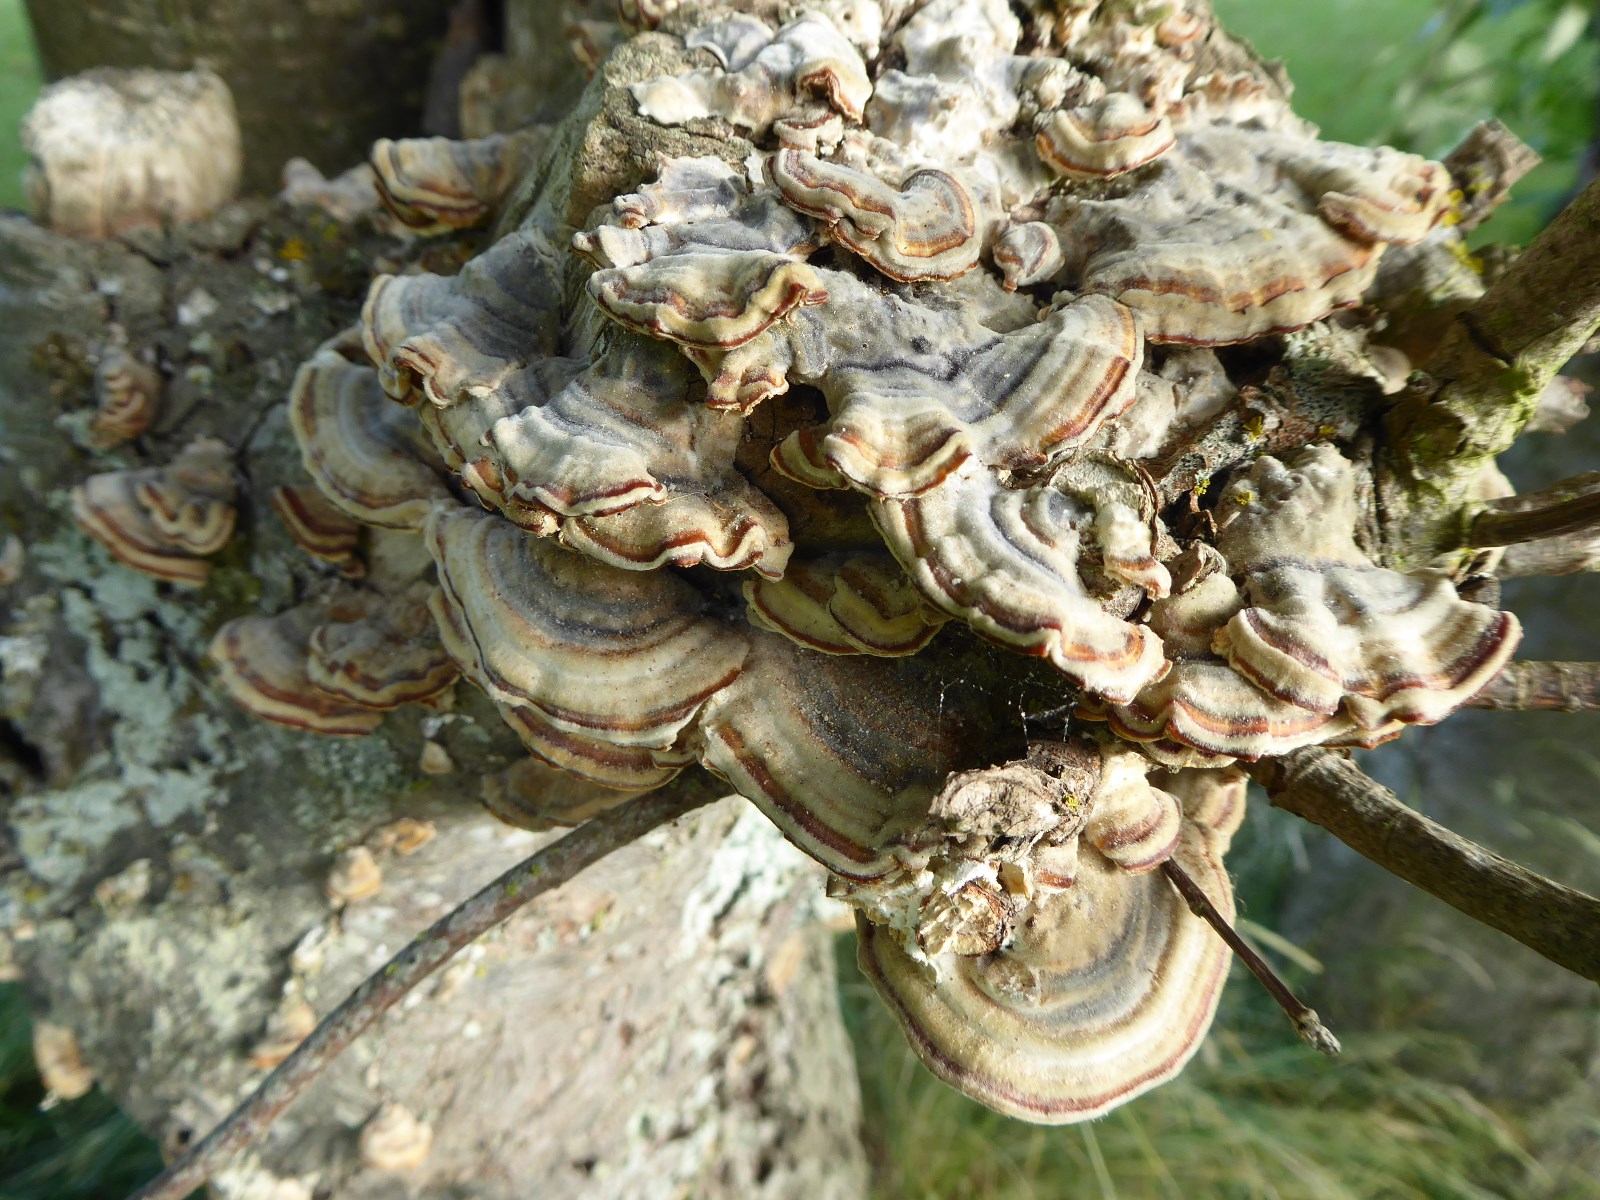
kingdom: Fungi
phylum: Basidiomycota
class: Agaricomycetes
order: Polyporales
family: Polyporaceae
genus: Trametes
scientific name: Trametes versicolor
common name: broget læderporesvamp
